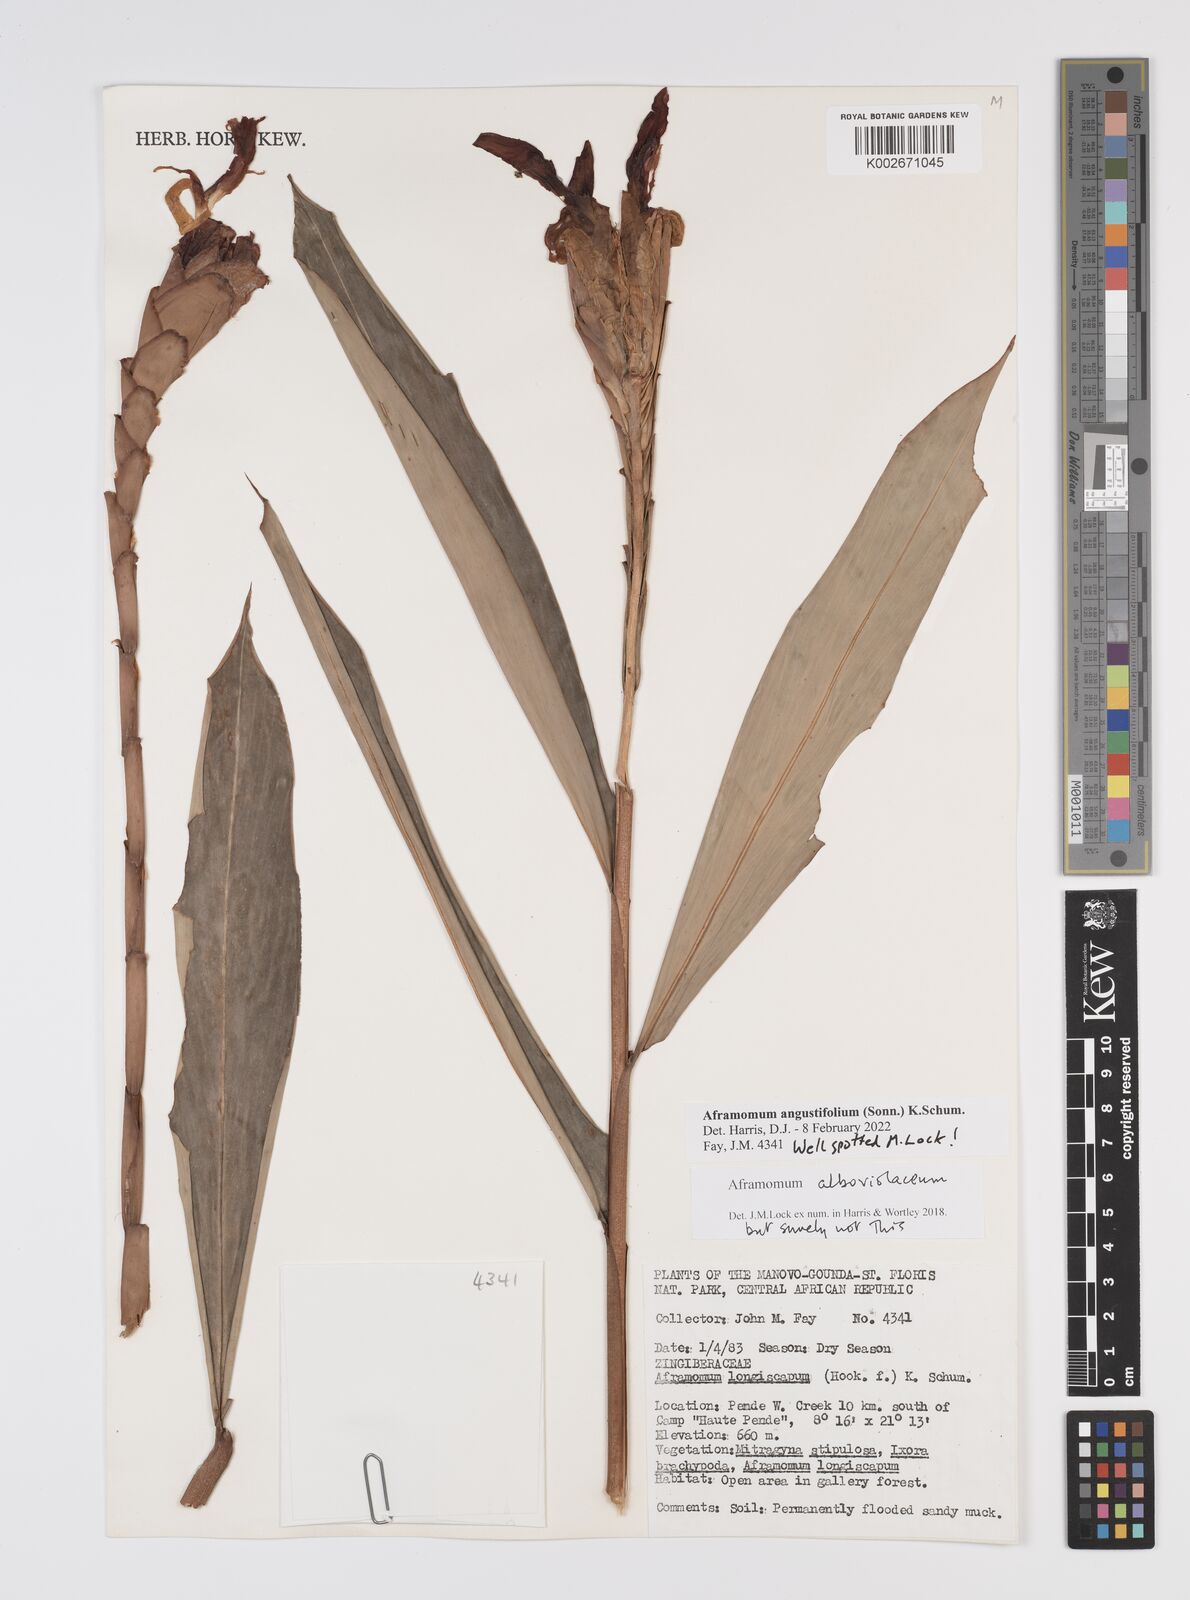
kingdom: Plantae
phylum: Tracheophyta
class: Liliopsida
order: Zingiberales
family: Zingiberaceae
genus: Aframomum
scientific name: Aframomum angustifolium
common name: Guinea grains
